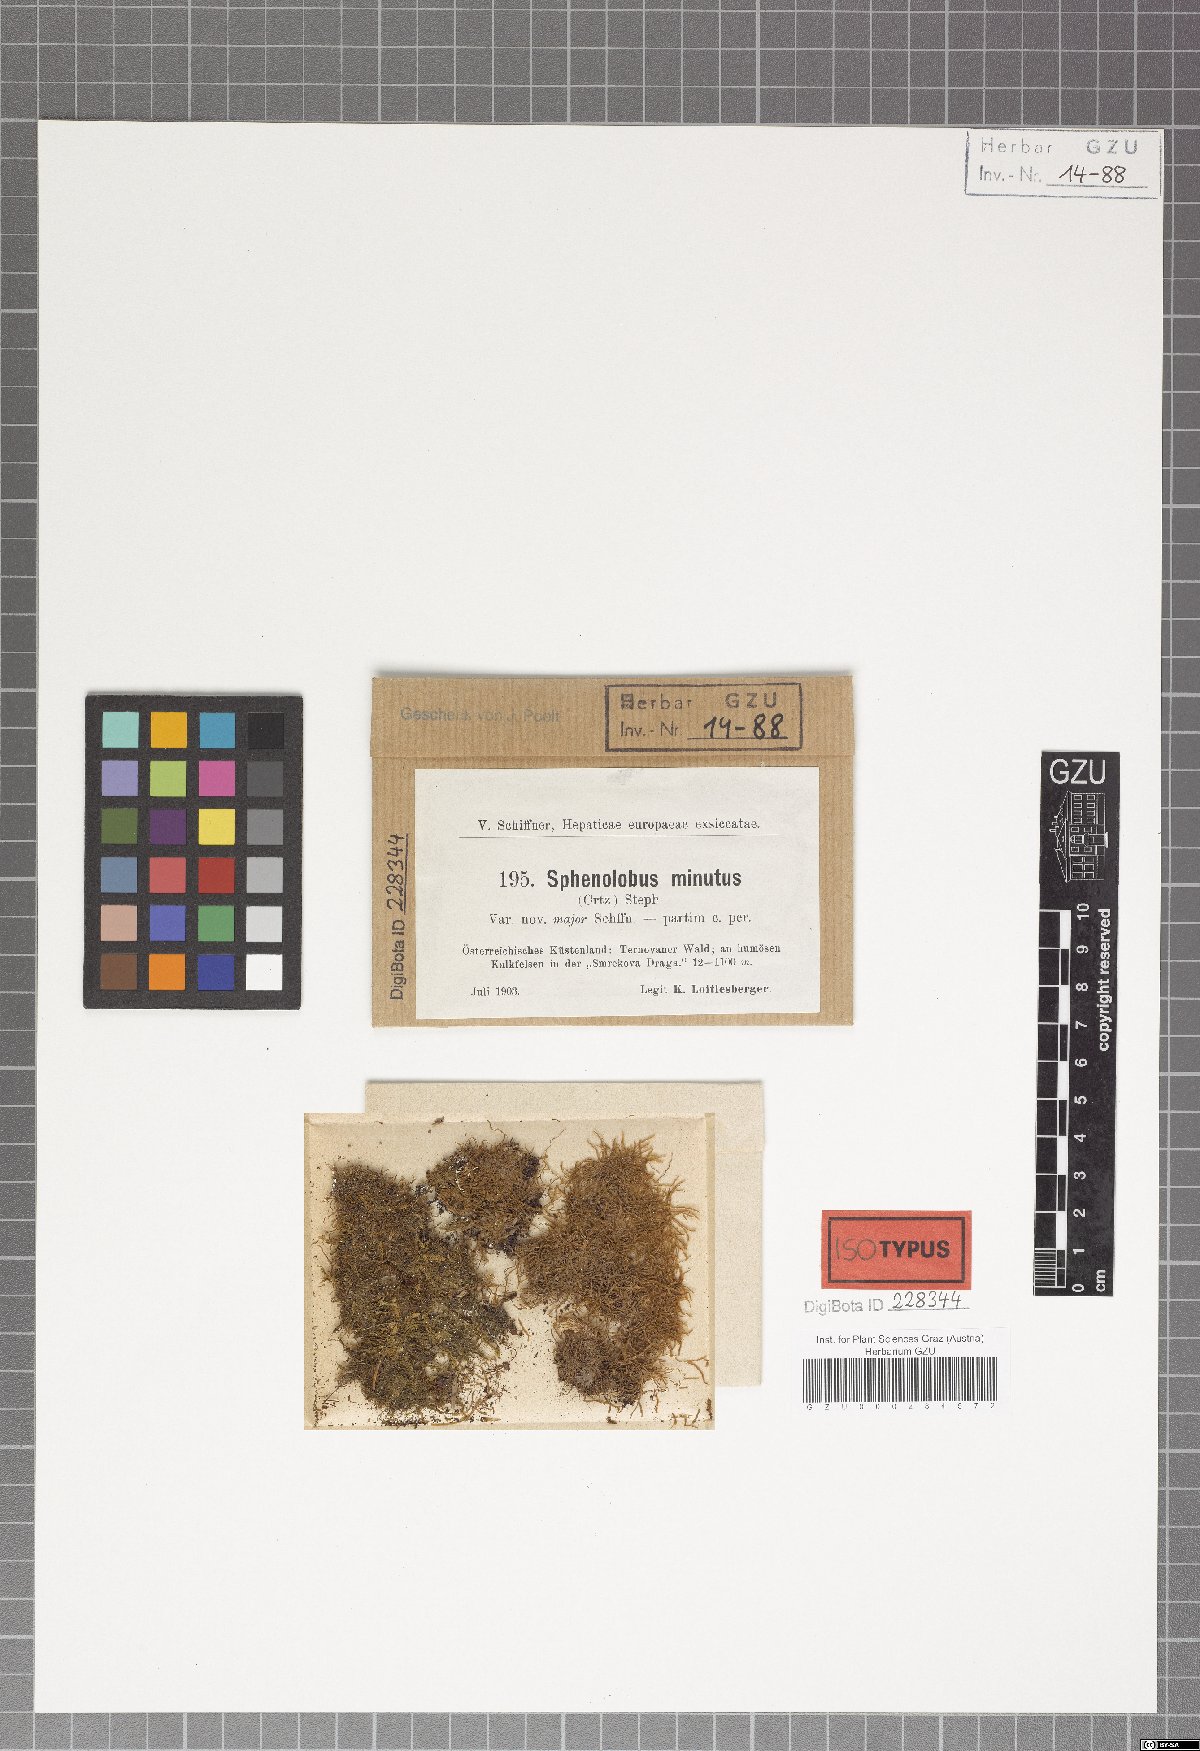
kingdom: Plantae
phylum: Marchantiophyta
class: Jungermanniopsida
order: Jungermanniales
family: Anastrophyllaceae
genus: Sphenolobus
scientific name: Sphenolobus minutus
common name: Comb notchwort
